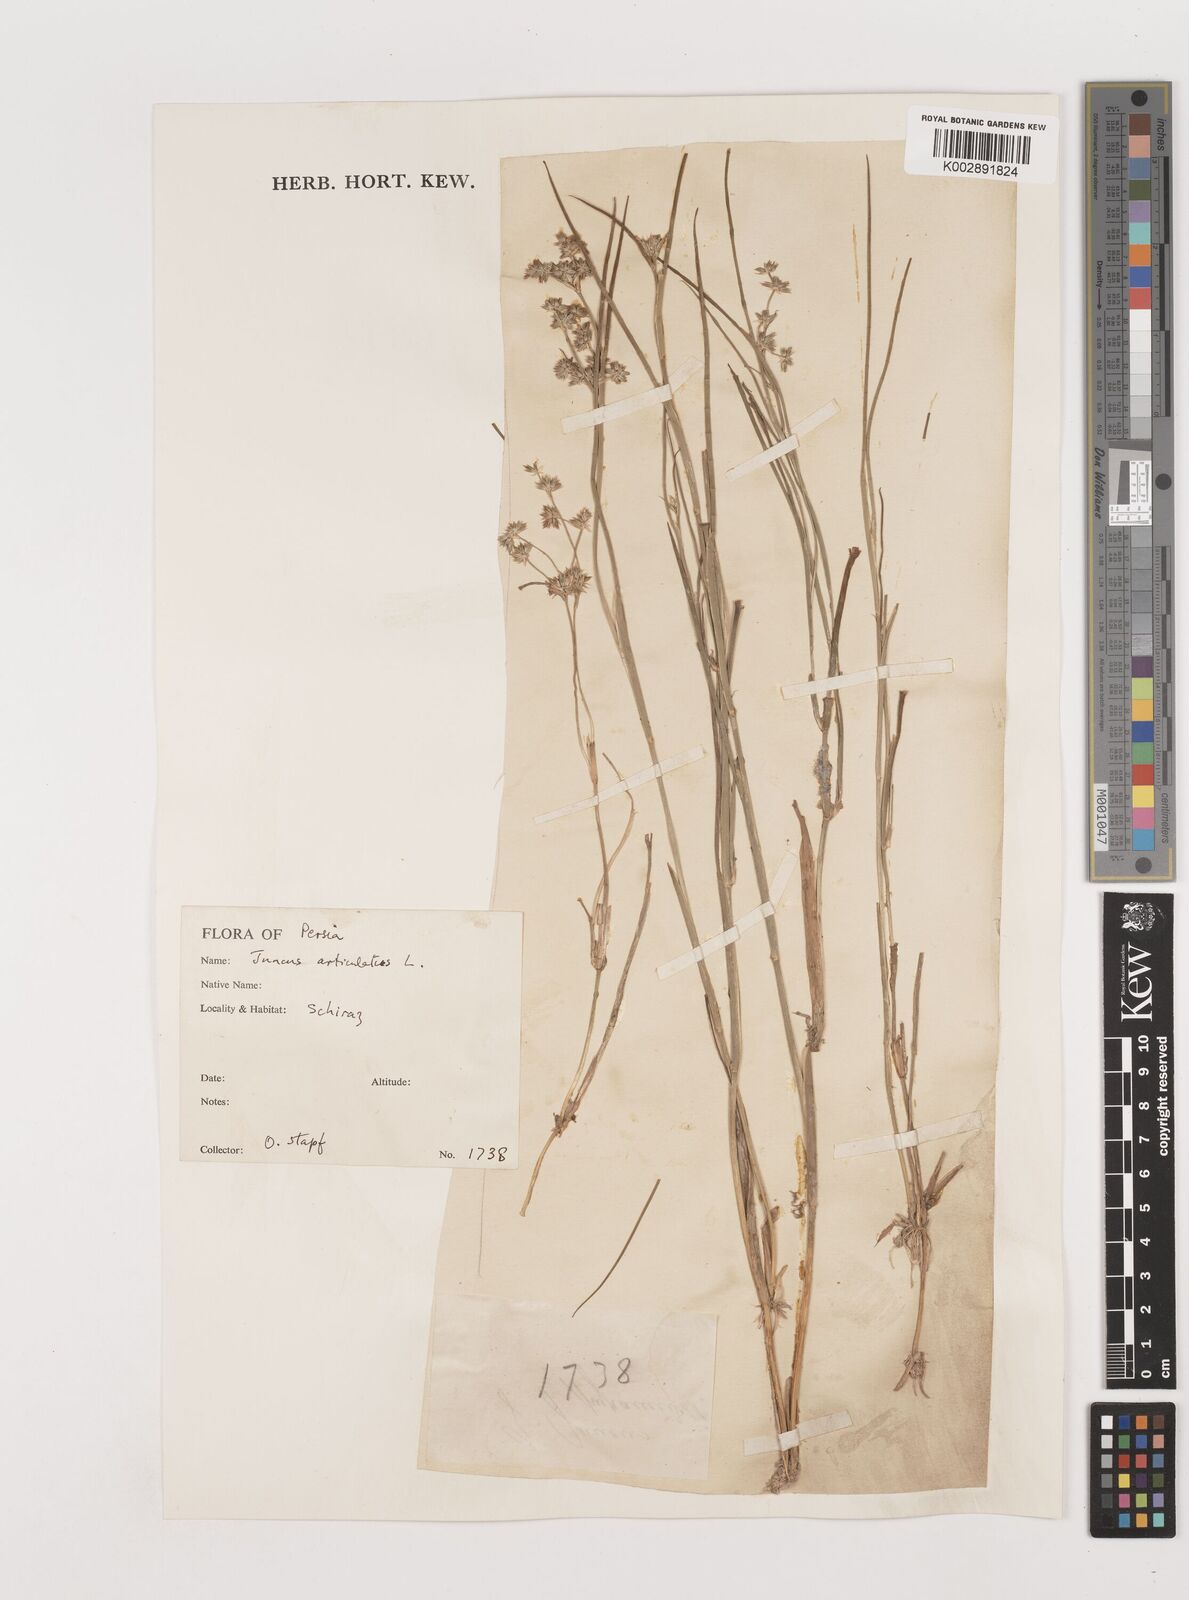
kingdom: Plantae
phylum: Tracheophyta
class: Liliopsida
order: Poales
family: Juncaceae
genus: Juncus
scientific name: Juncus articulatus
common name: Jointed rush
